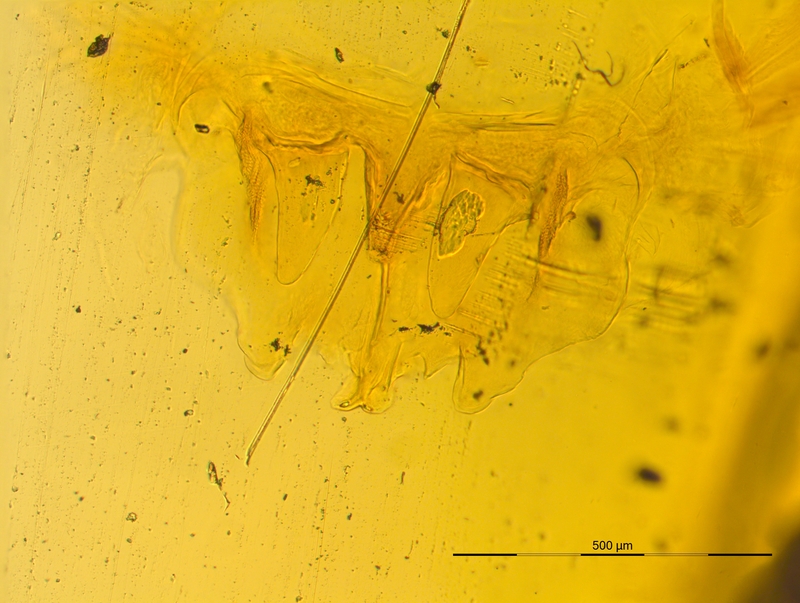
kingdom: Animalia
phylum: Arthropoda
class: Diplopoda
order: Chordeumatida
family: Craspedosomatidae
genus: Craspedosoma
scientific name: Craspedosoma rawlinsii
